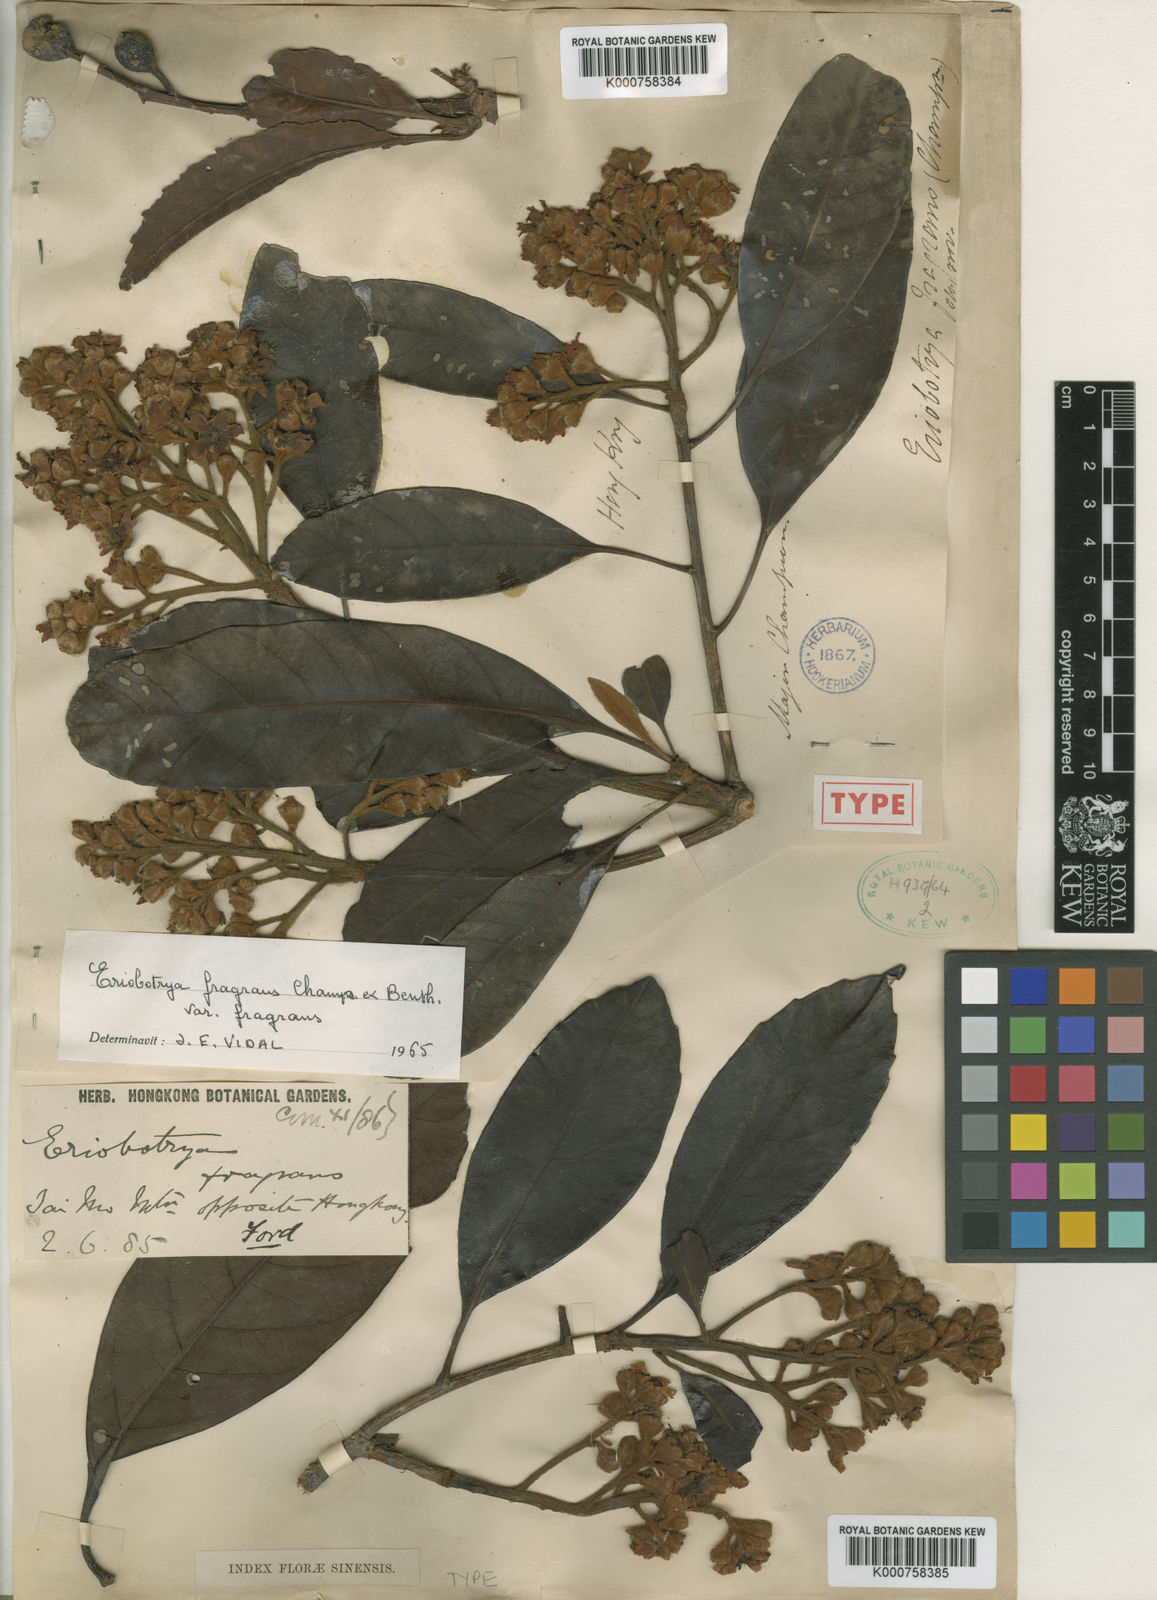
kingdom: Plantae
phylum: Tracheophyta
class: Magnoliopsida
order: Rosales
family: Rosaceae
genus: Rhaphiolepis
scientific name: Rhaphiolepis williamtelliana
